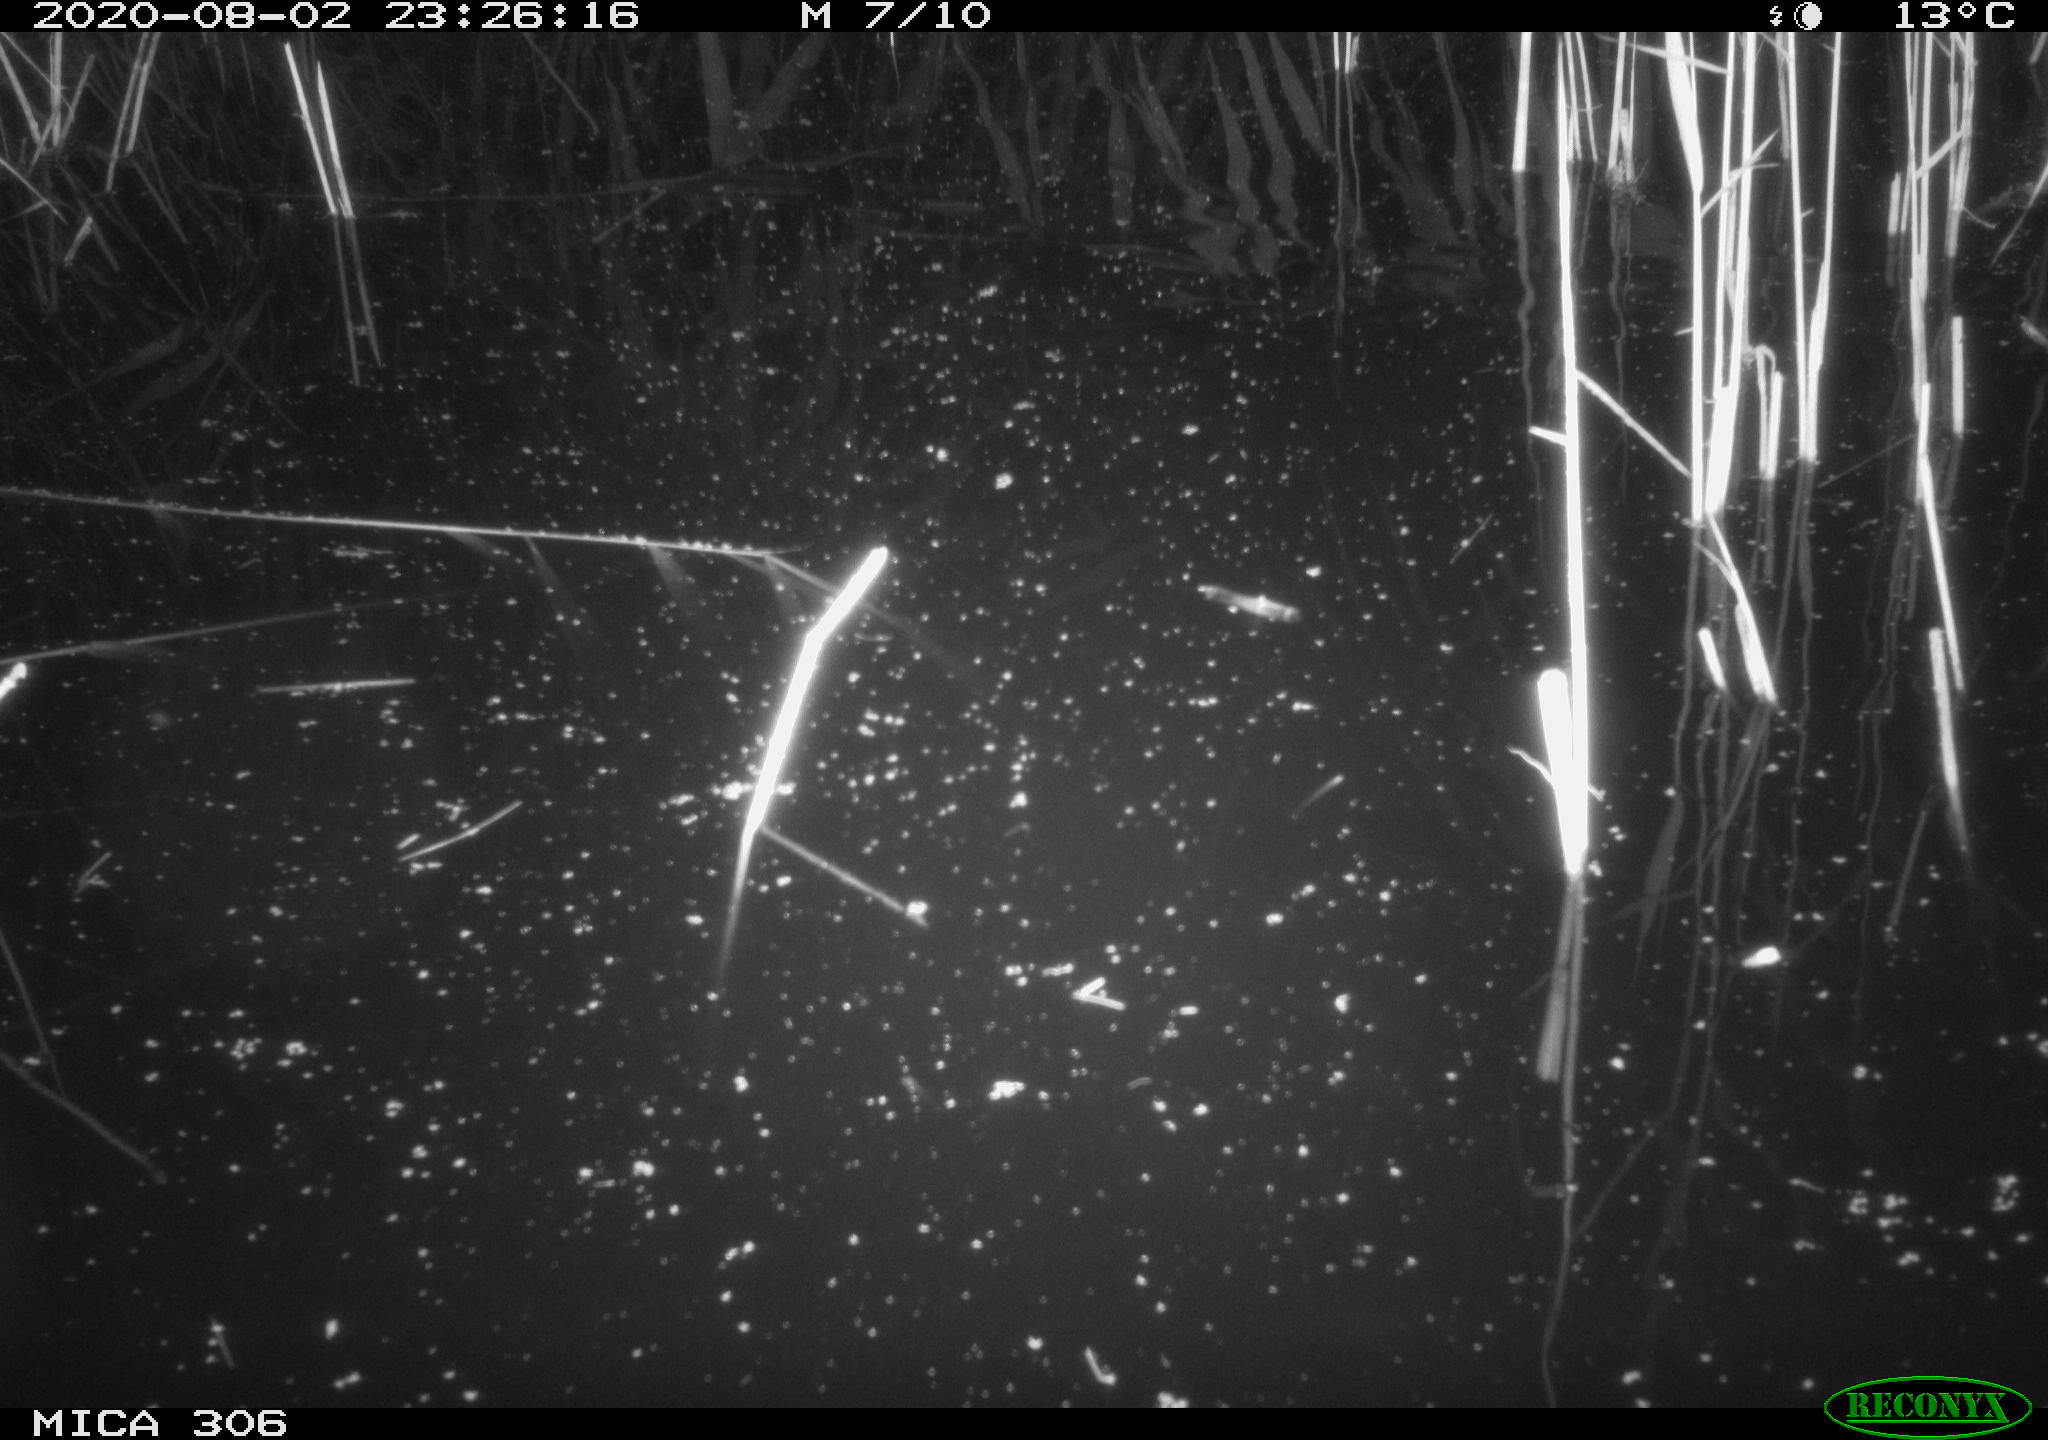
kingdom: Animalia
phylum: Chordata
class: Mammalia
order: Rodentia
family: Muridae
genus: Rattus
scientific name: Rattus norvegicus
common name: Brown rat
